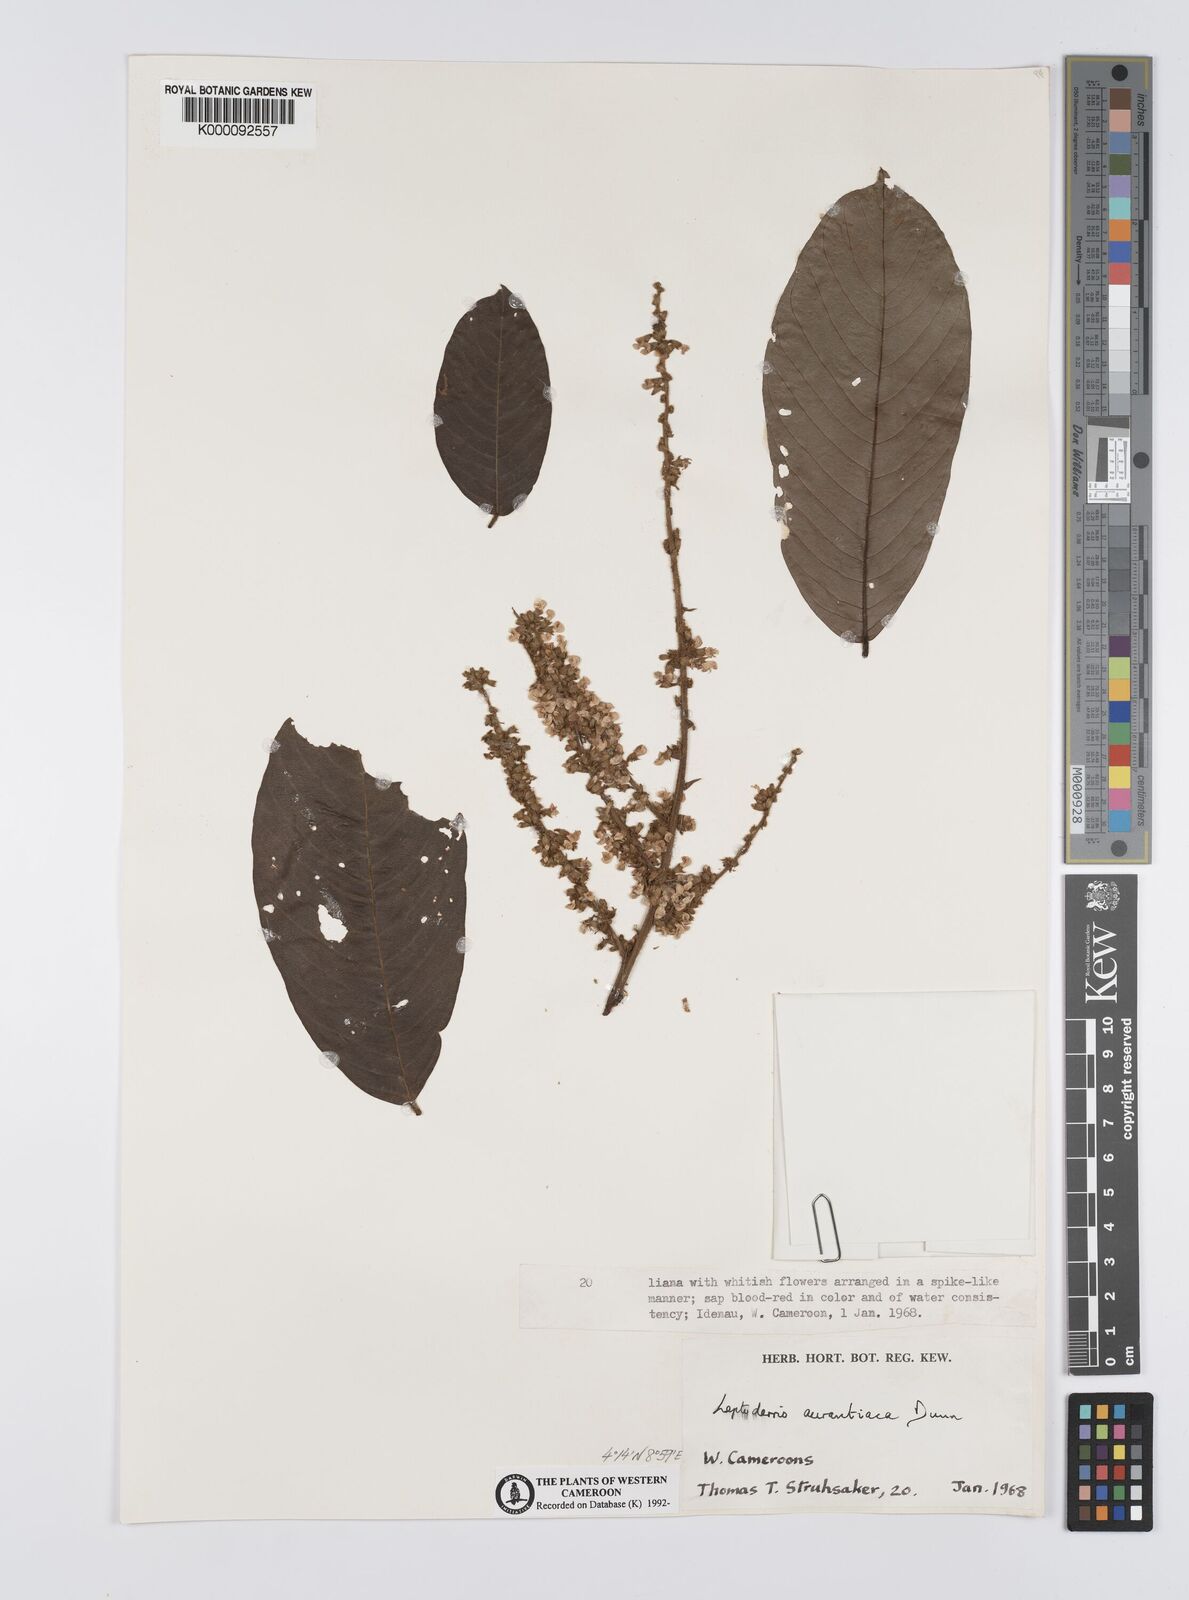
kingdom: Plantae
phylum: Tracheophyta
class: Magnoliopsida
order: Fabales
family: Fabaceae
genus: Leptoderris
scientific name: Leptoderris aurantiaca
